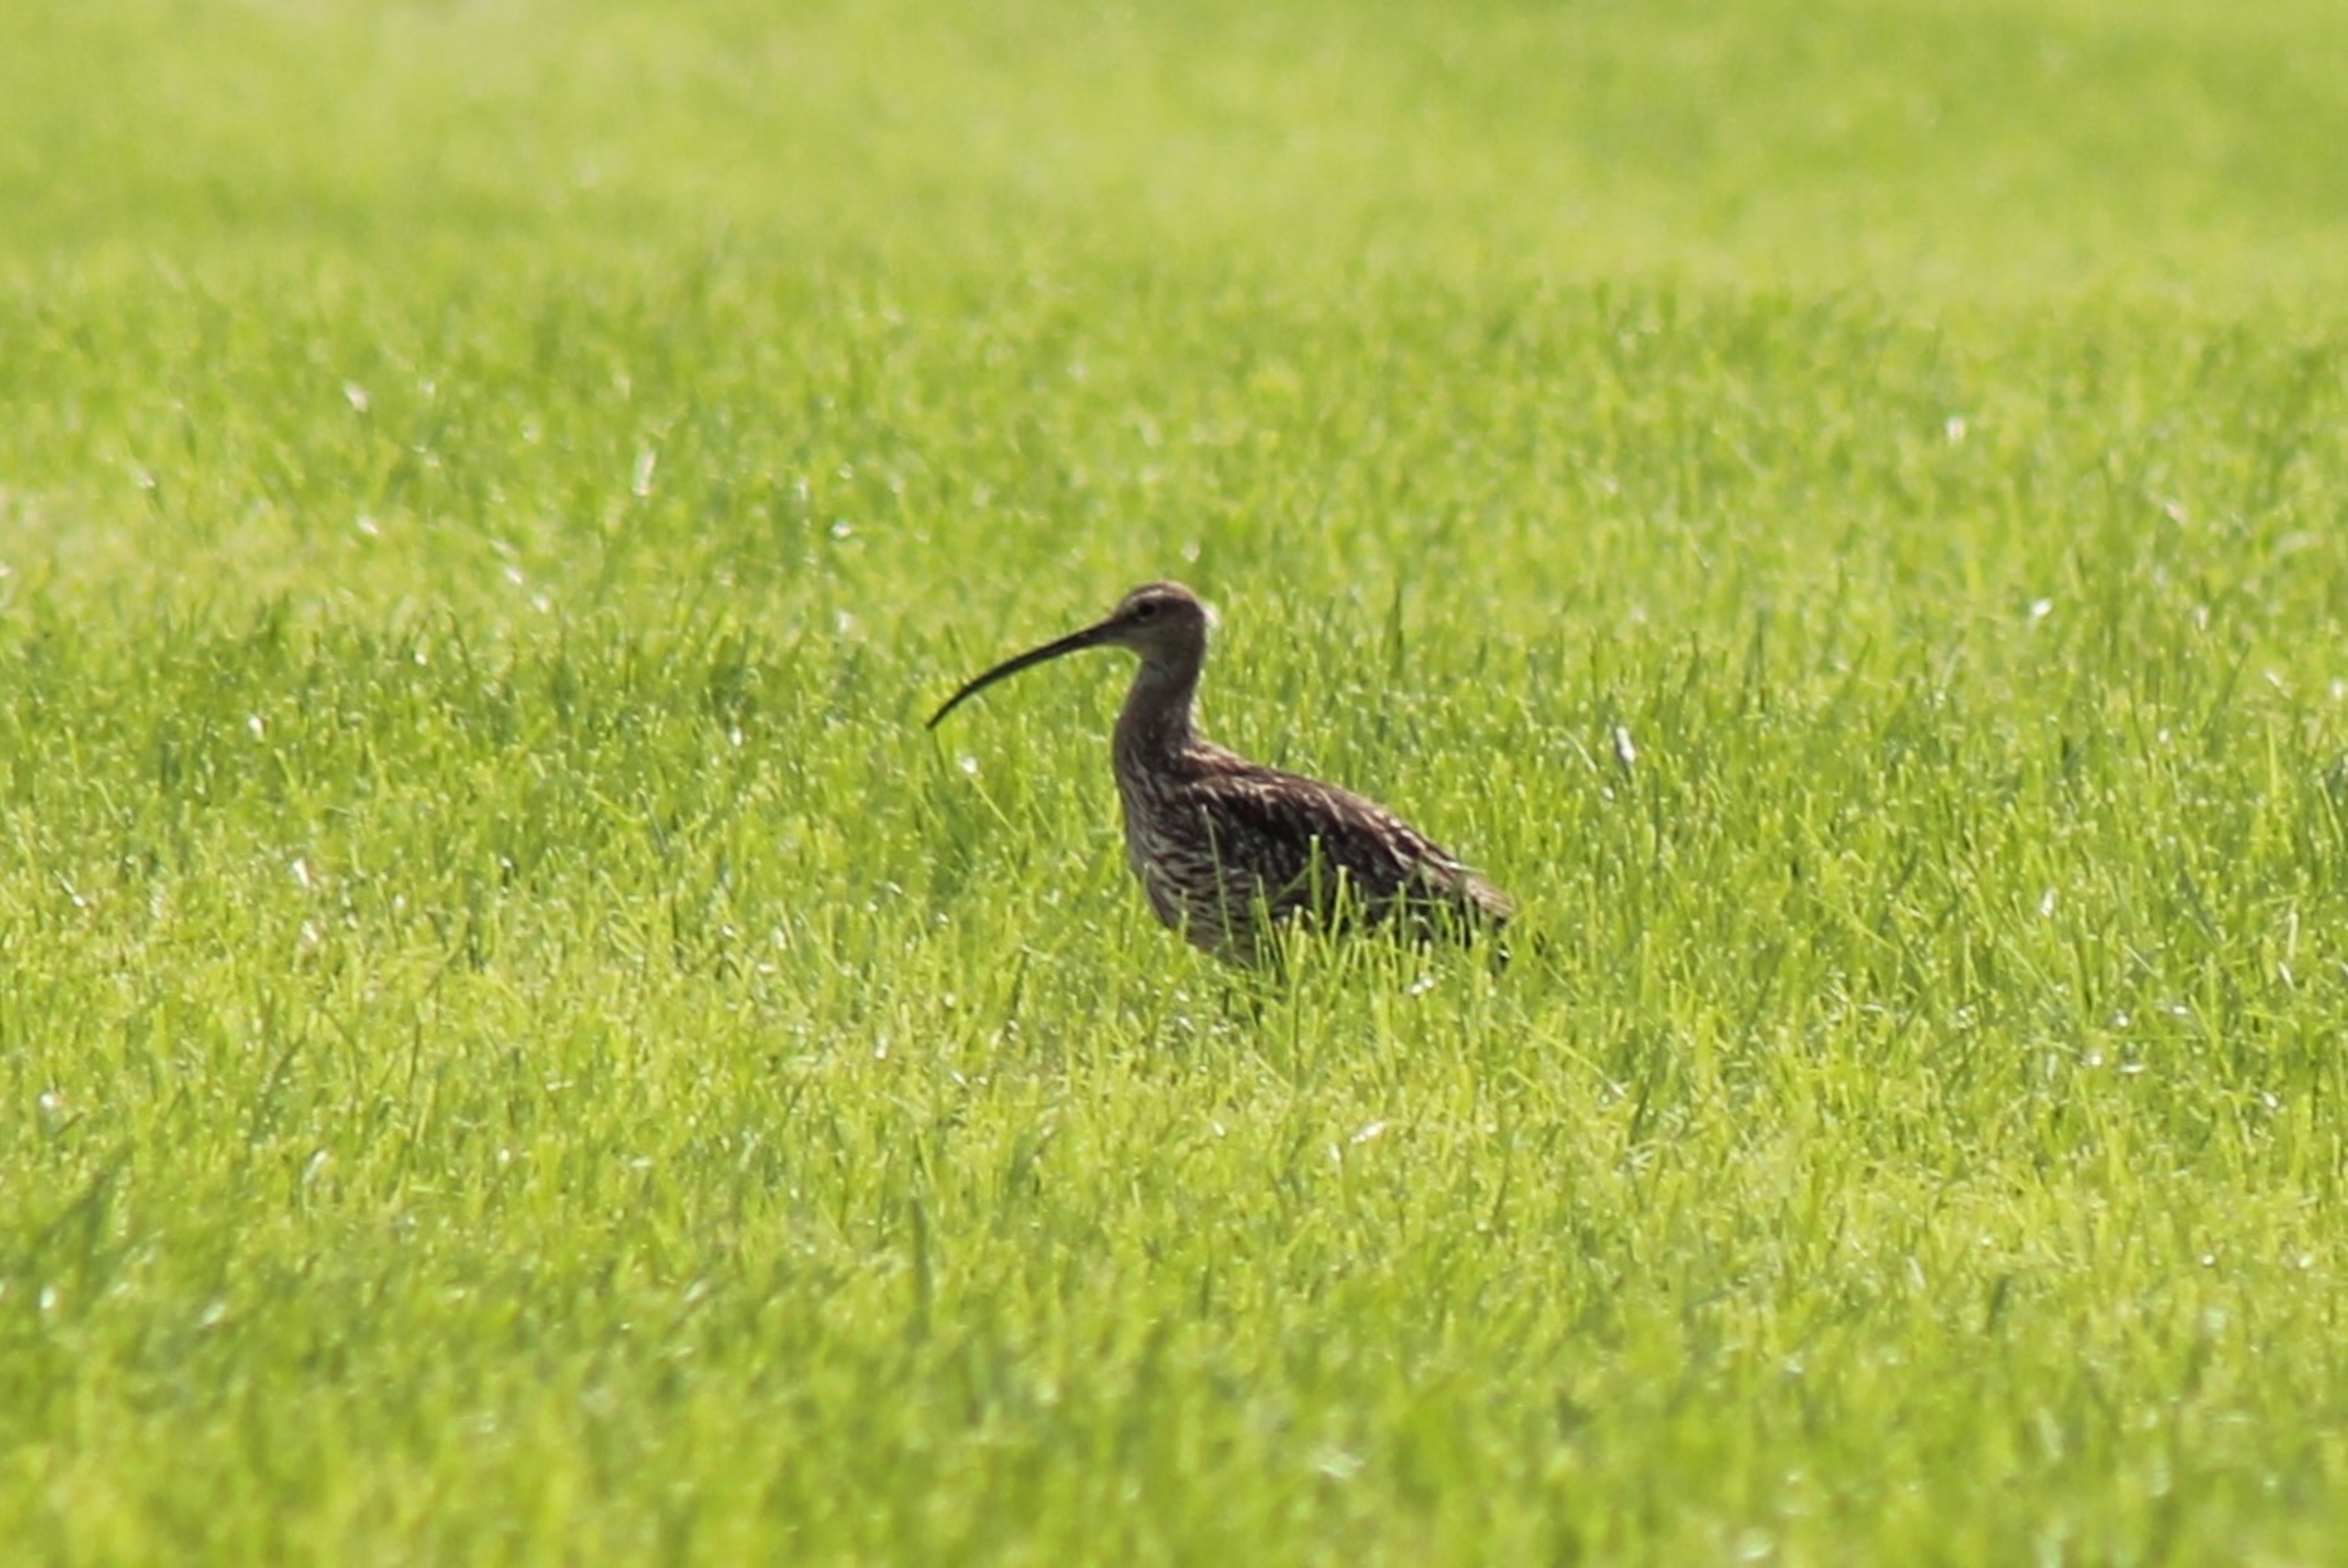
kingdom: Animalia
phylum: Chordata
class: Aves
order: Charadriiformes
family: Scolopacidae
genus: Numenius
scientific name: Numenius arquata
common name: Storspove
